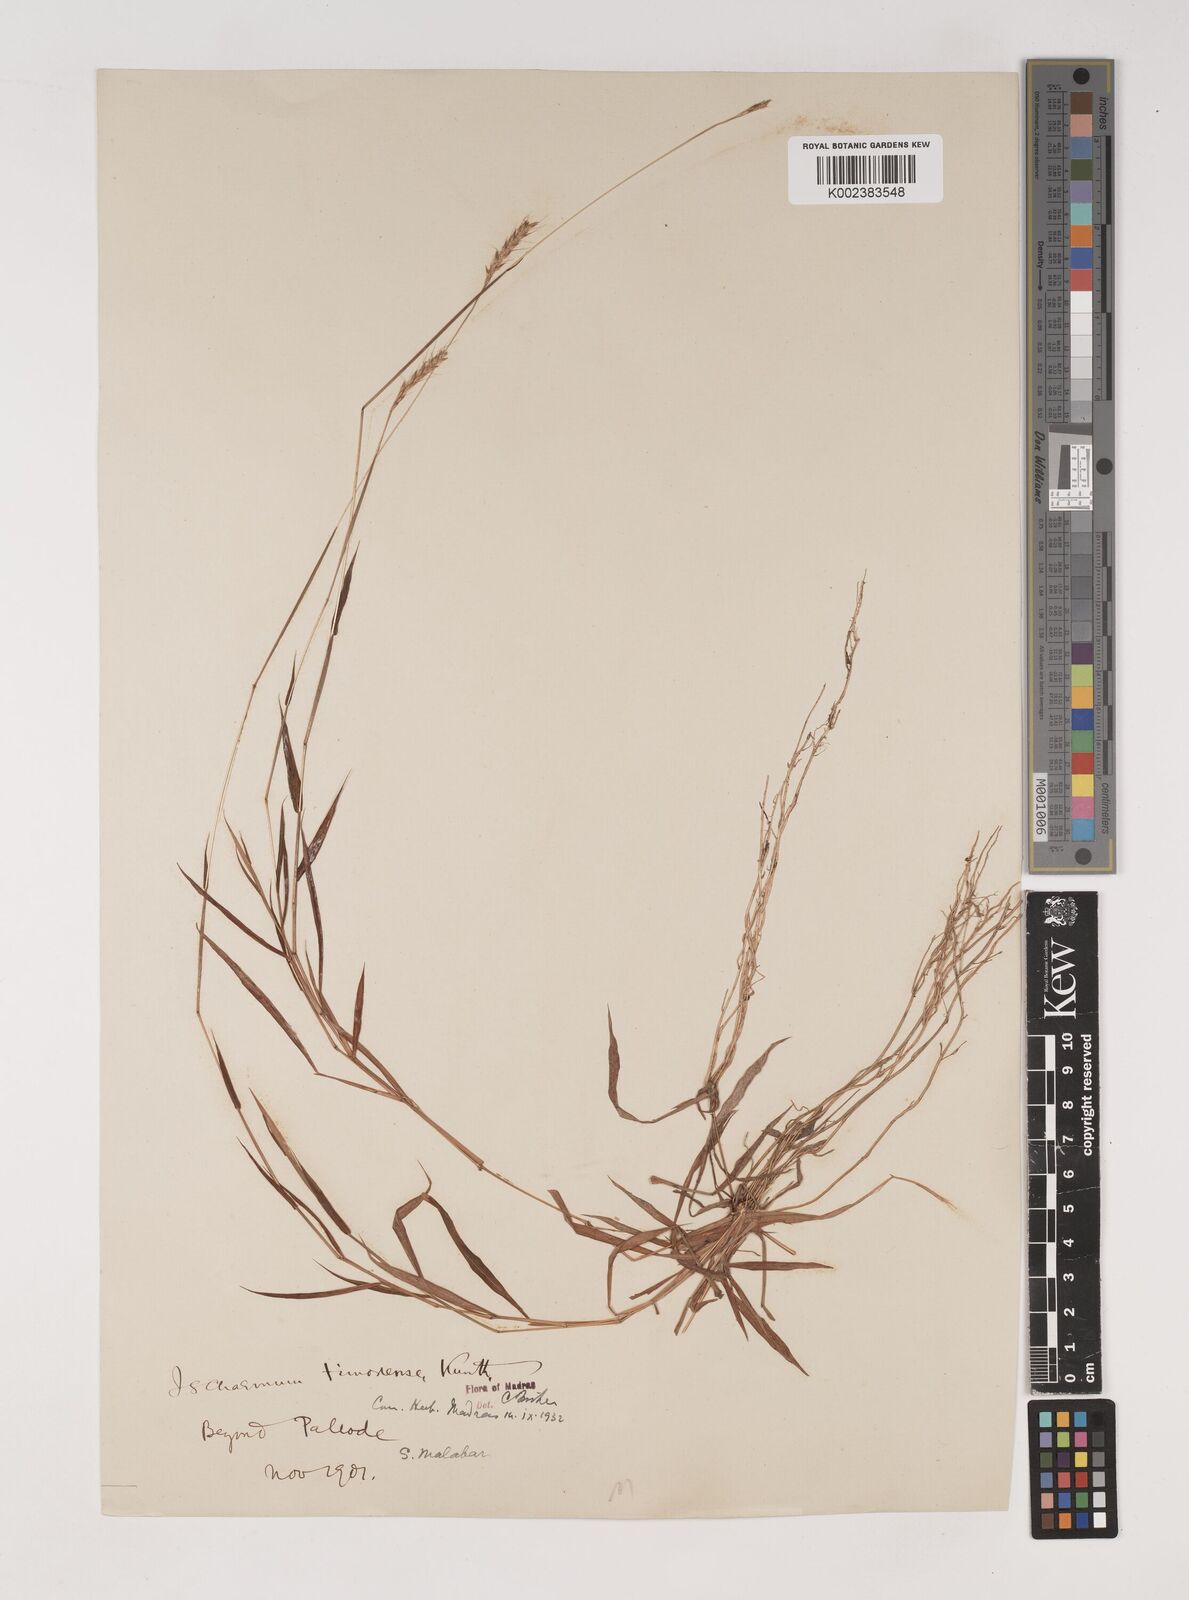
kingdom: Plantae
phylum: Tracheophyta
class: Liliopsida
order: Poales
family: Poaceae
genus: Ischaemum
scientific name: Ischaemum timorense
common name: Stalkleaf murainagrass
